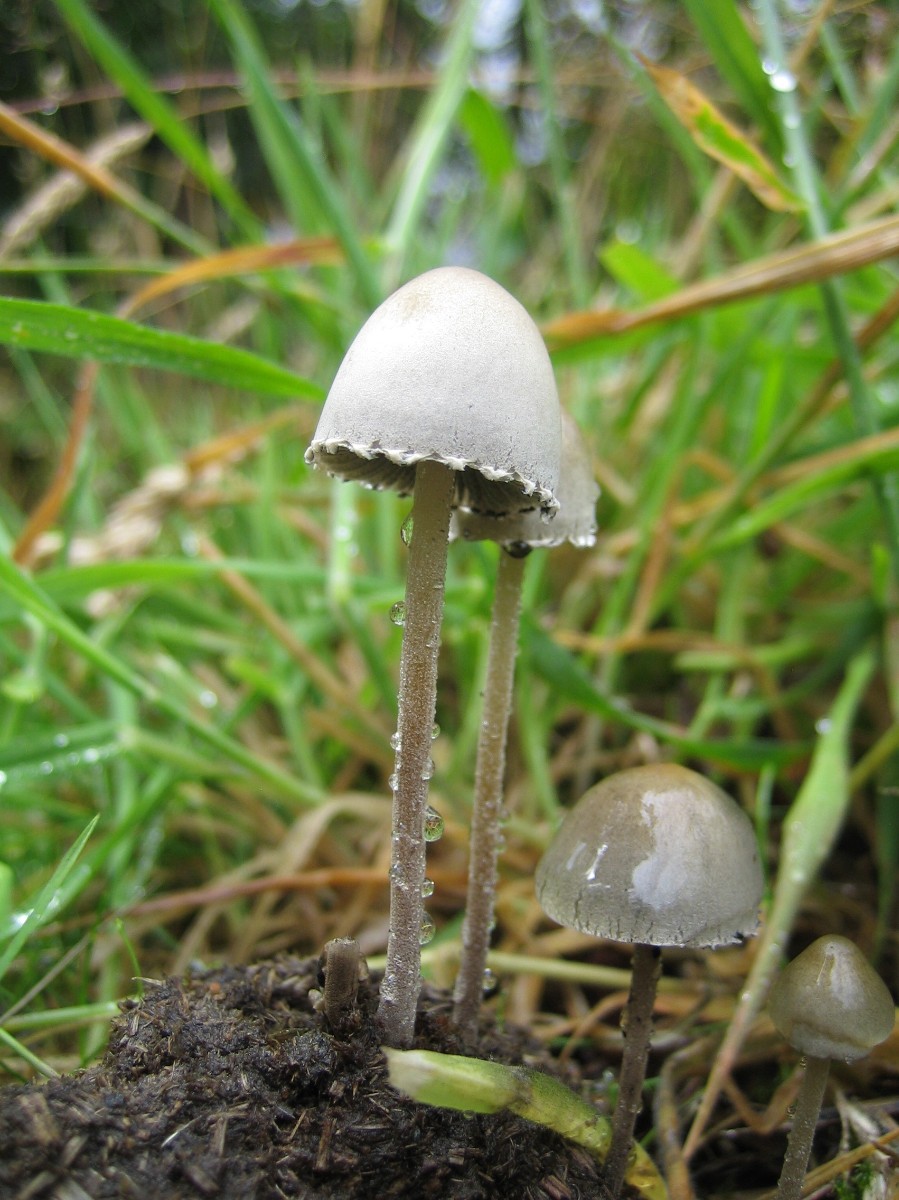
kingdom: Fungi
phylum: Basidiomycota
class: Agaricomycetes
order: Agaricales
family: Bolbitiaceae
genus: Panaeolus
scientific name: Panaeolus papilionaceus
